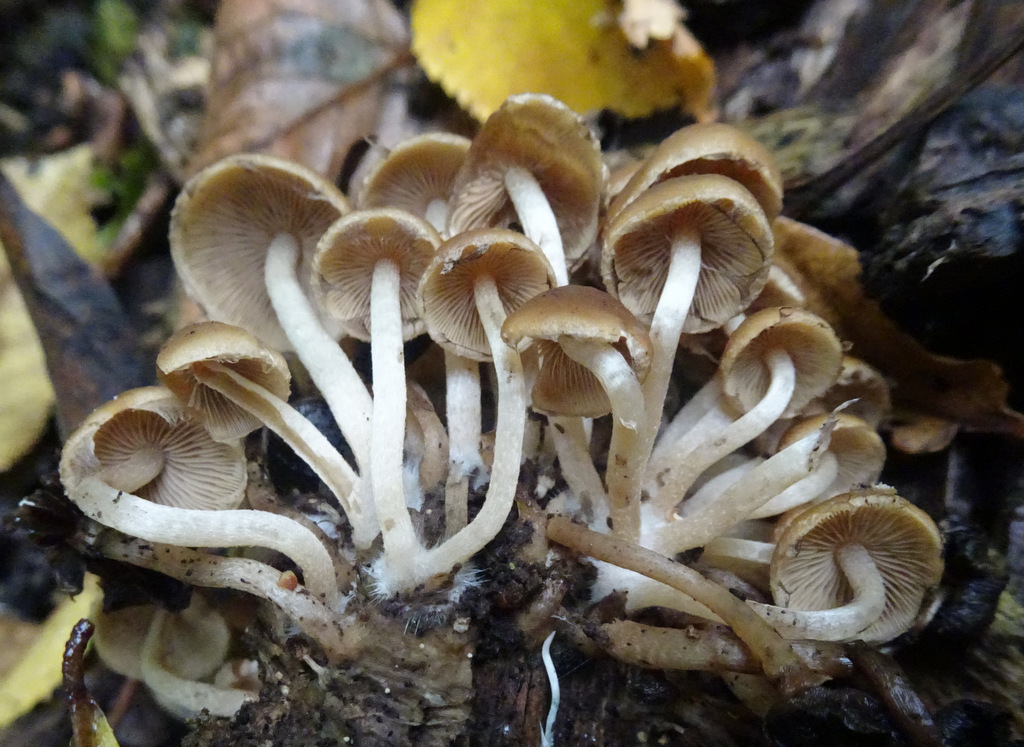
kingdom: Fungi
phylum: Basidiomycota
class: Agaricomycetes
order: Agaricales
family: Psathyrellaceae
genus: Psathyrella
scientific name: Psathyrella piluliformis
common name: lysstokket mørkhat
